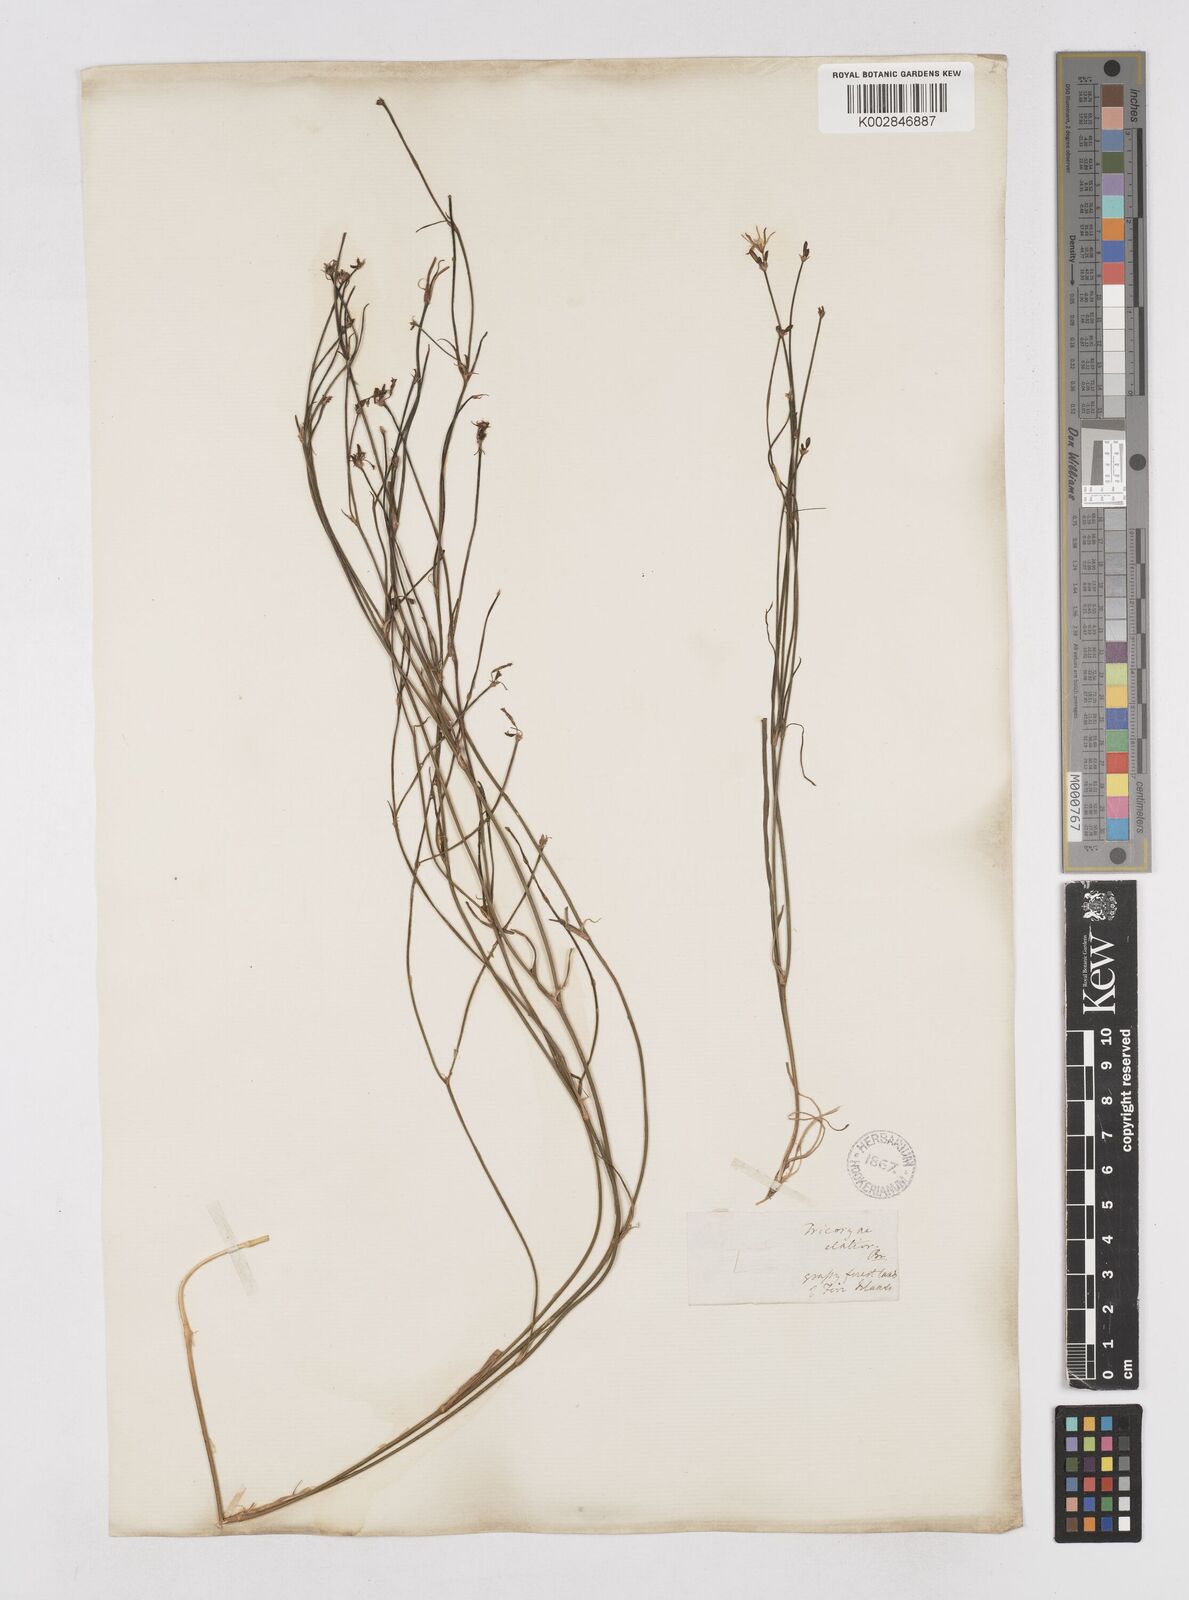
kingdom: Plantae
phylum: Tracheophyta
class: Liliopsida
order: Asparagales
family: Asphodelaceae
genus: Tricoryne
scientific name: Tricoryne elatior
